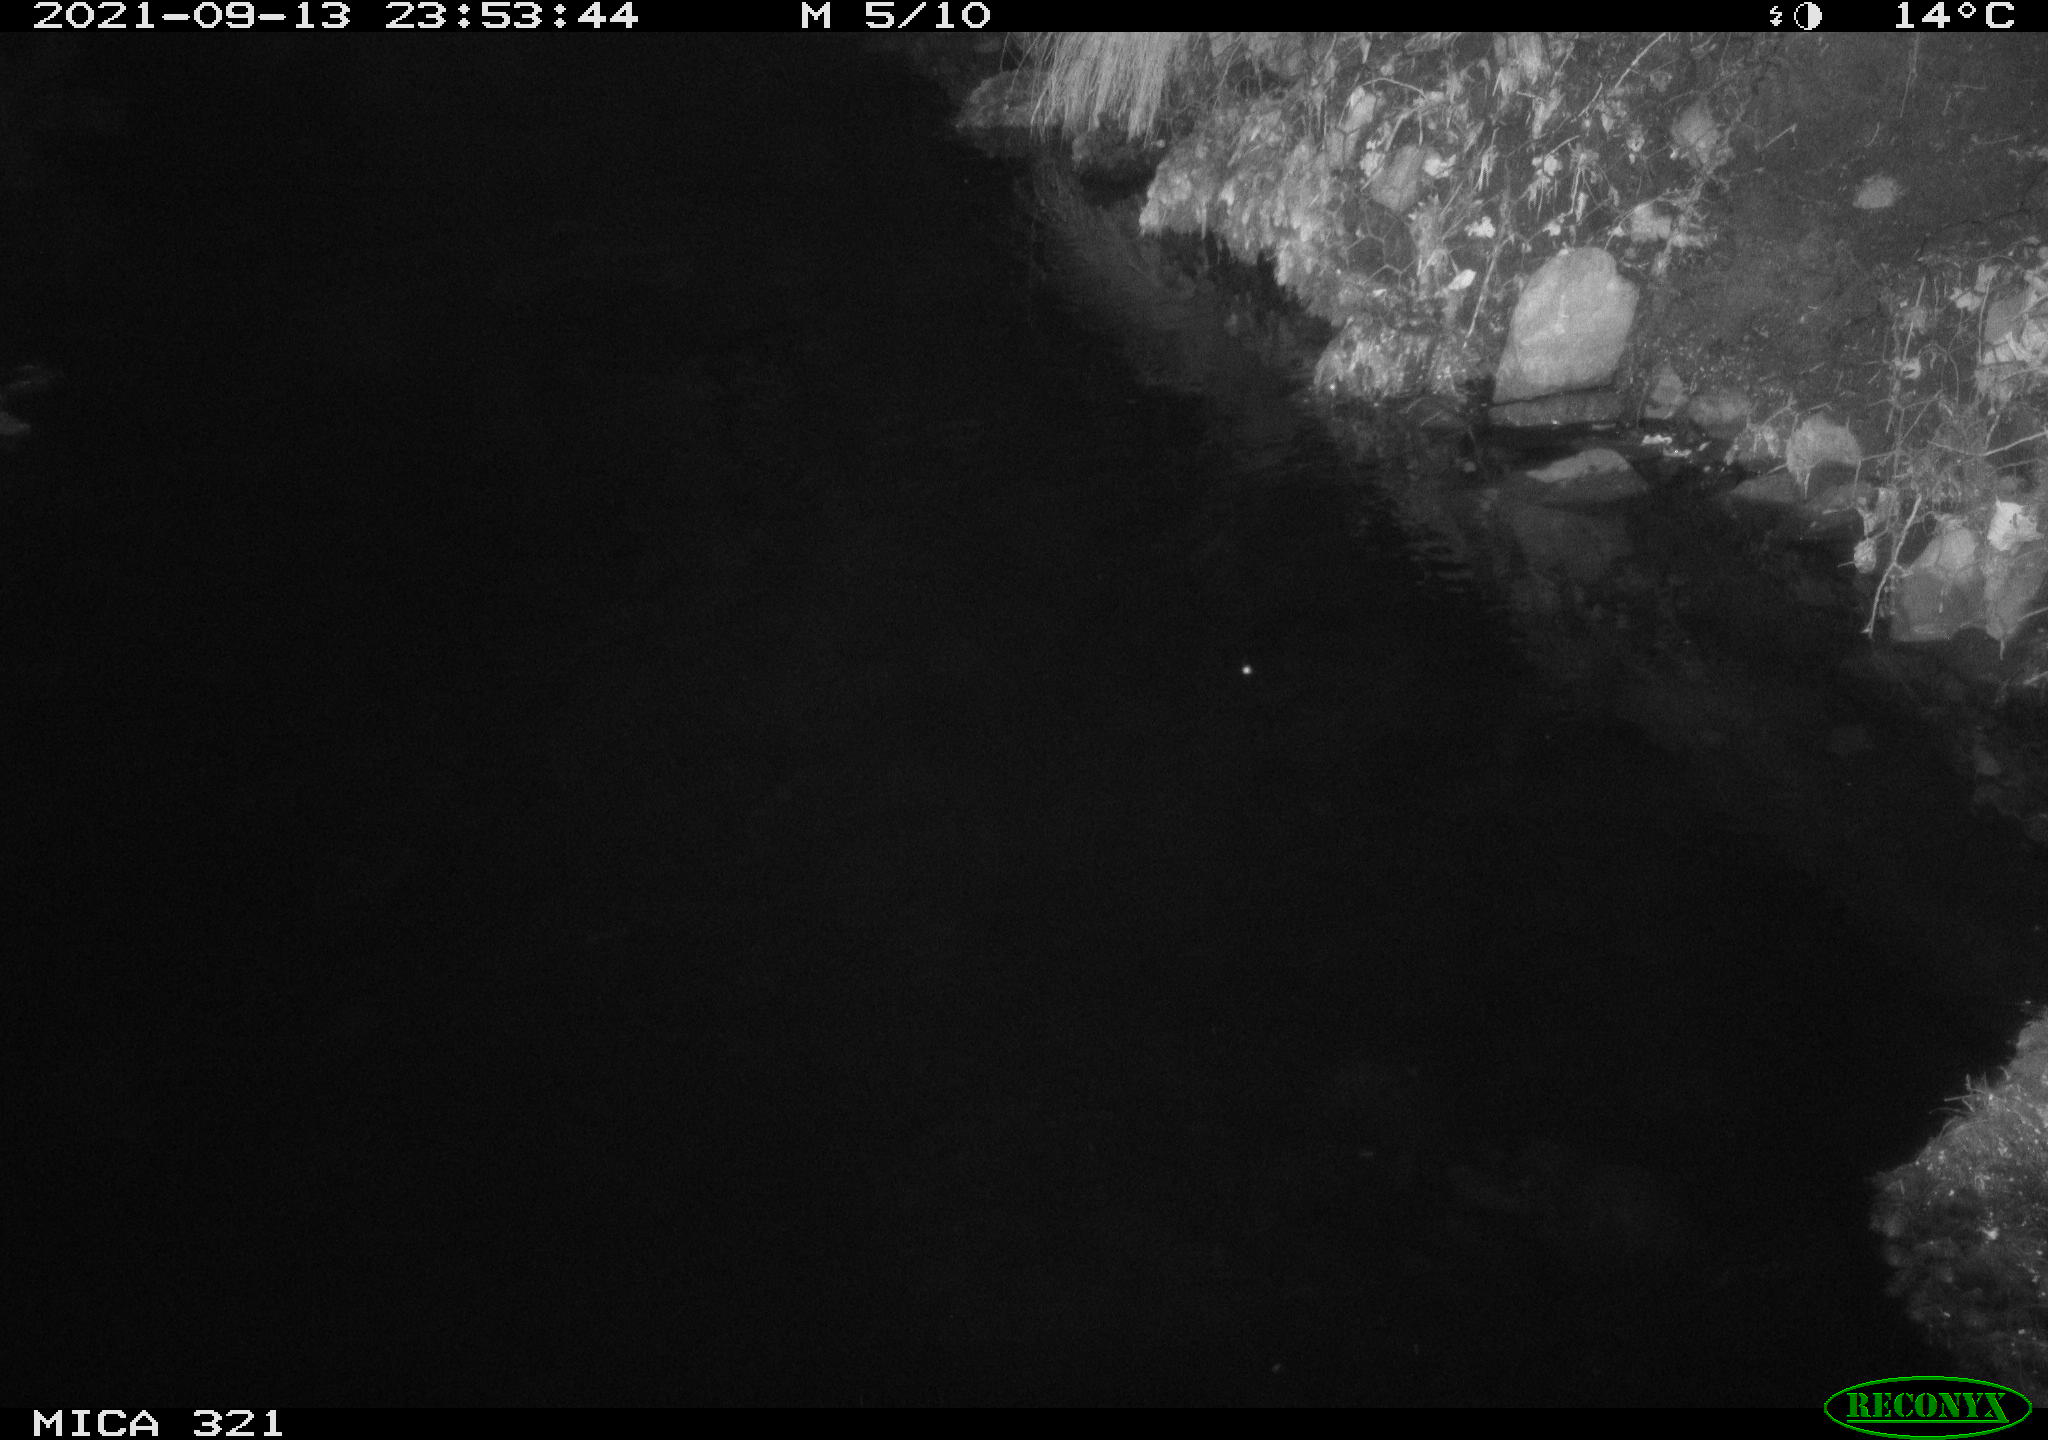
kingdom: Animalia
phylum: Chordata
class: Aves
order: Anseriformes
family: Anatidae
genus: Anas
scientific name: Anas platyrhynchos
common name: Mallard
